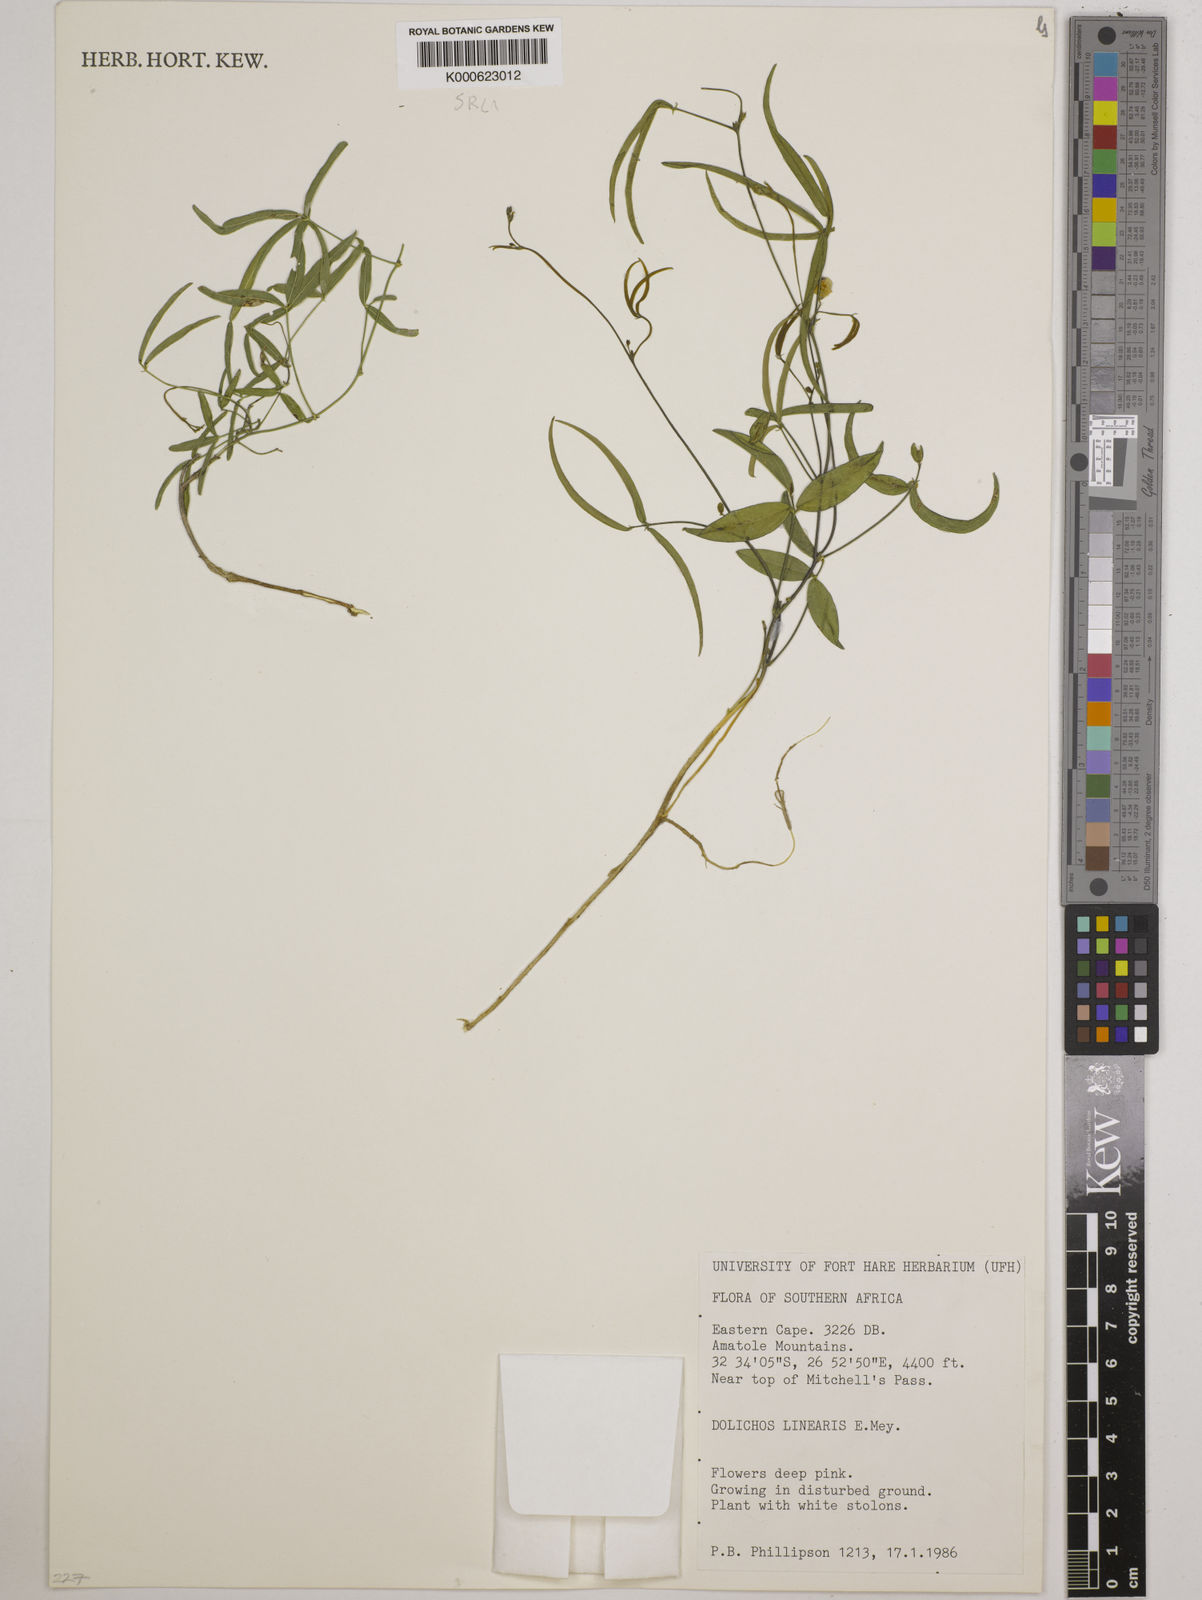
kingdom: Plantae
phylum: Tracheophyta
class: Magnoliopsida
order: Fabales
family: Fabaceae
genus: Dolichos
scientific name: Dolichos linearis
